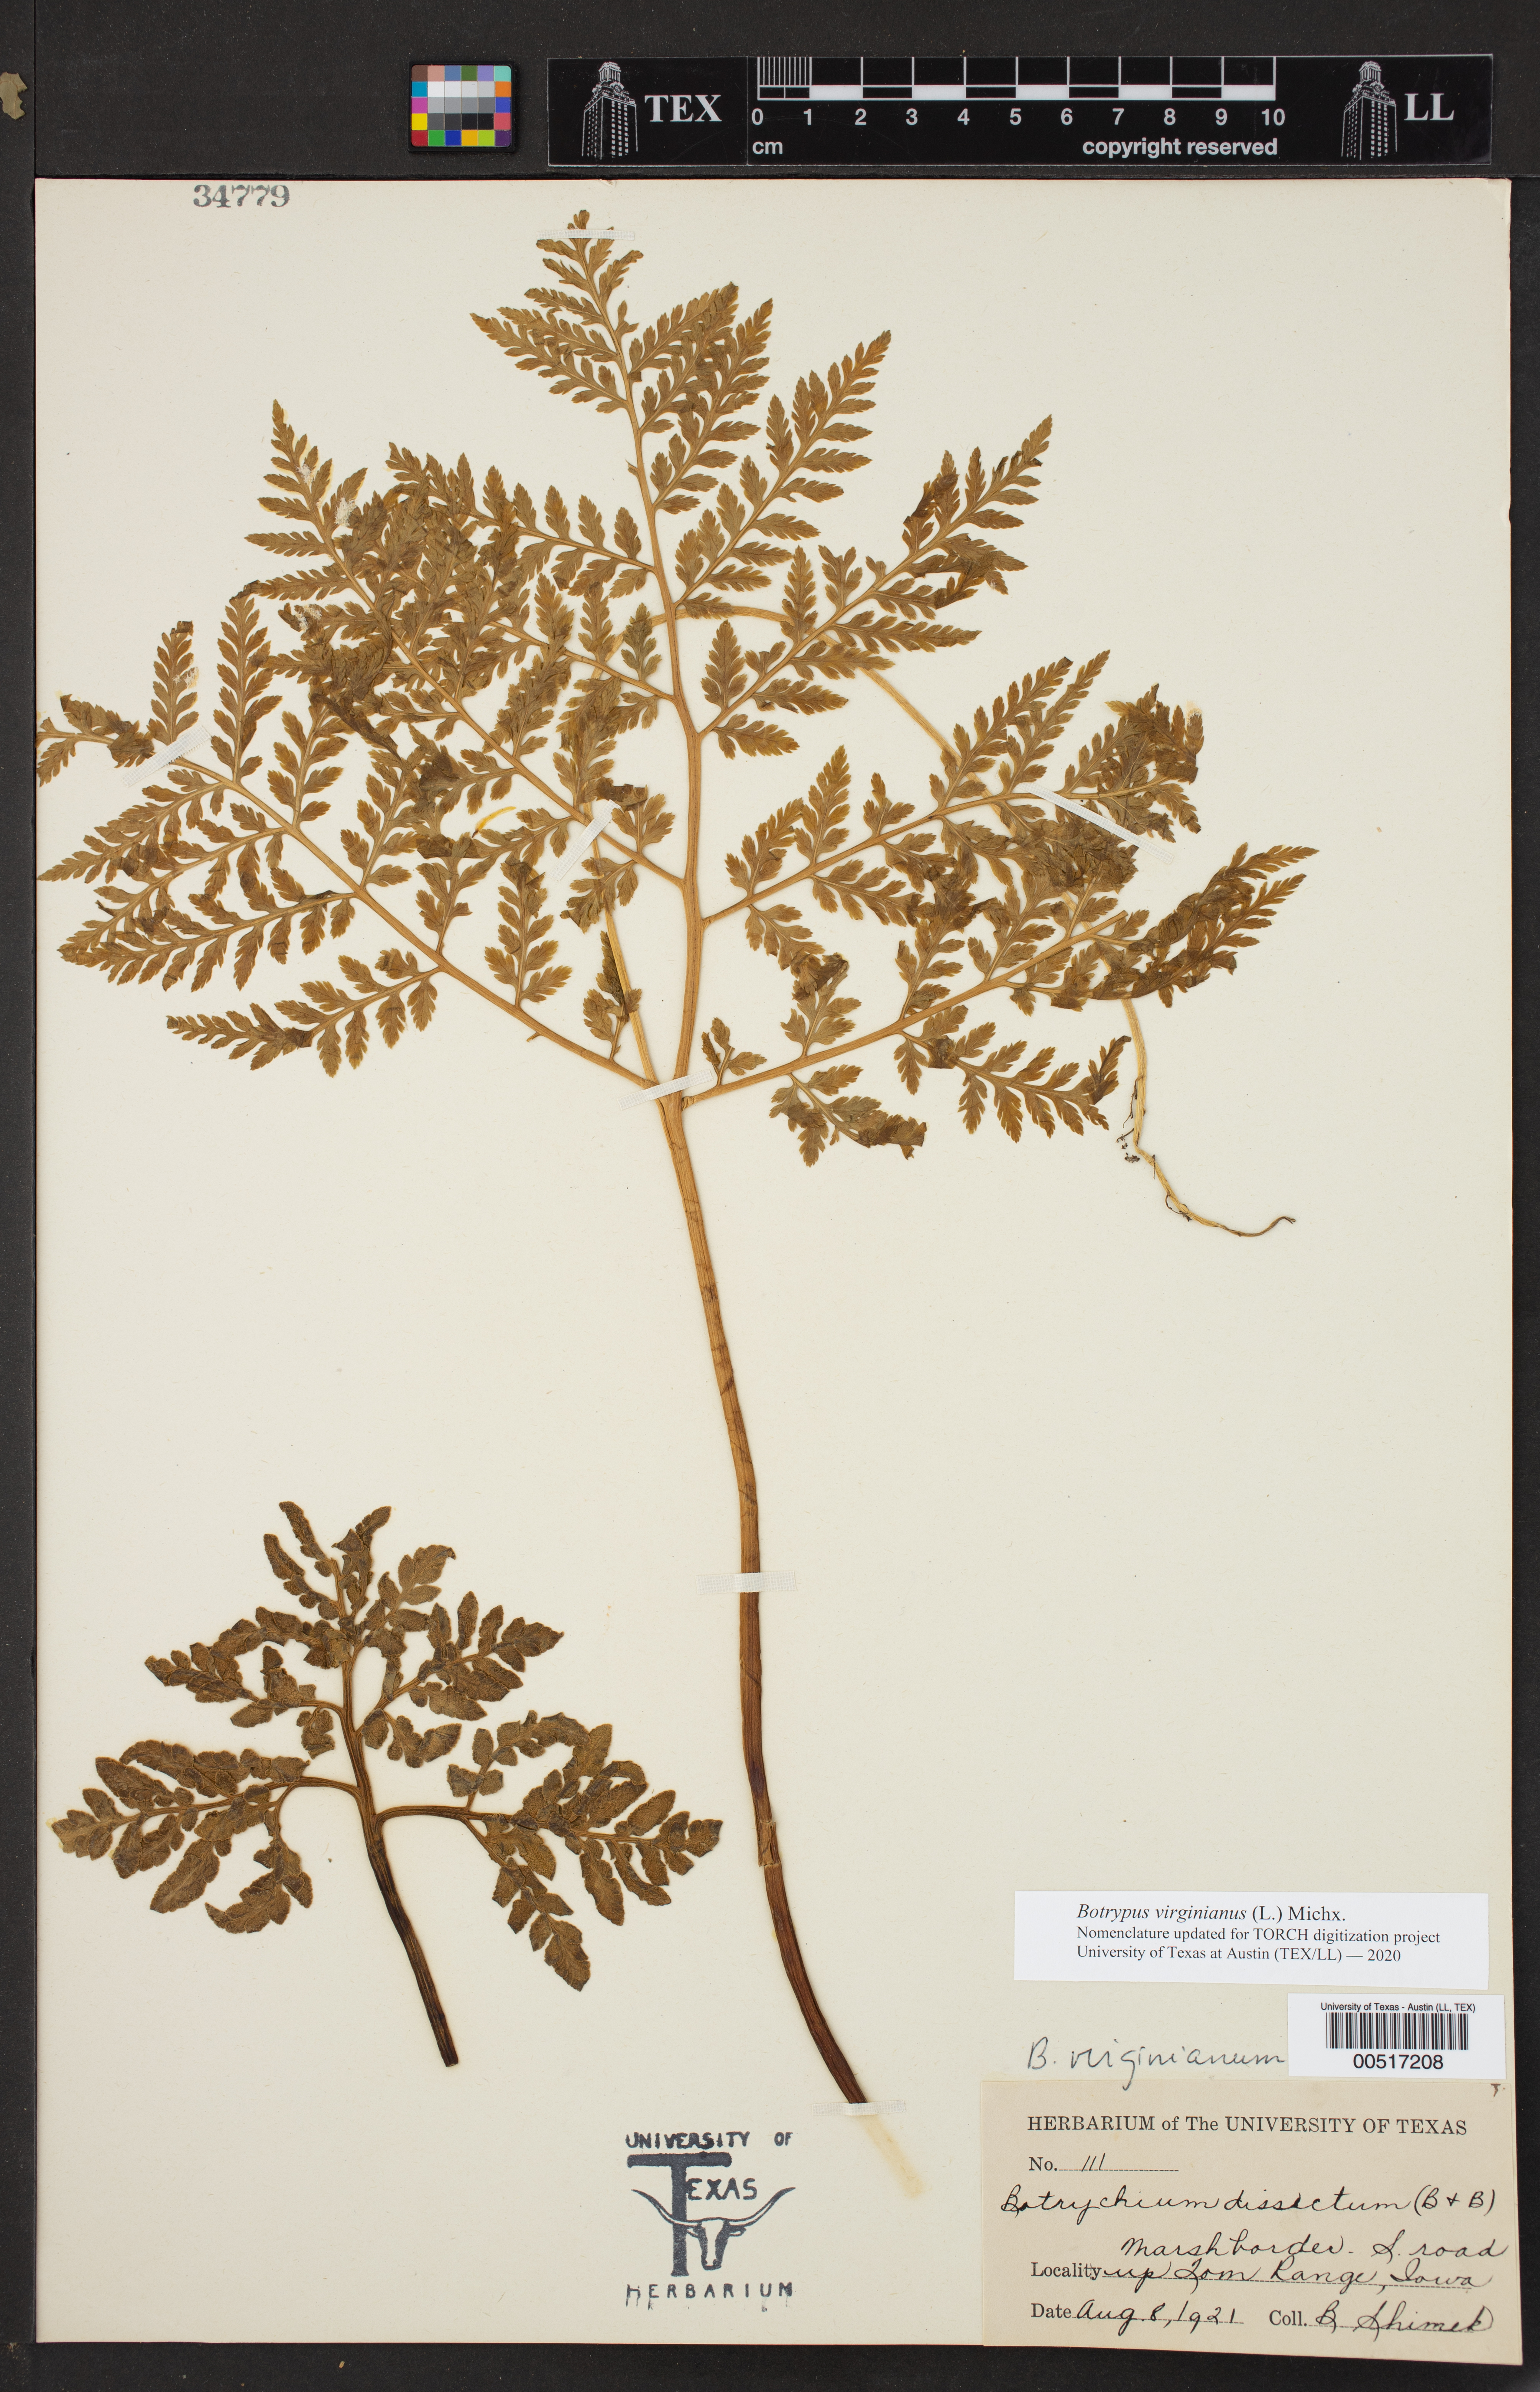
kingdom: Plantae
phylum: Tracheophyta
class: Polypodiopsida
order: Ophioglossales
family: Ophioglossaceae
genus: Botrypus
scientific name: Botrypus virginianus
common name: Common grapefern
